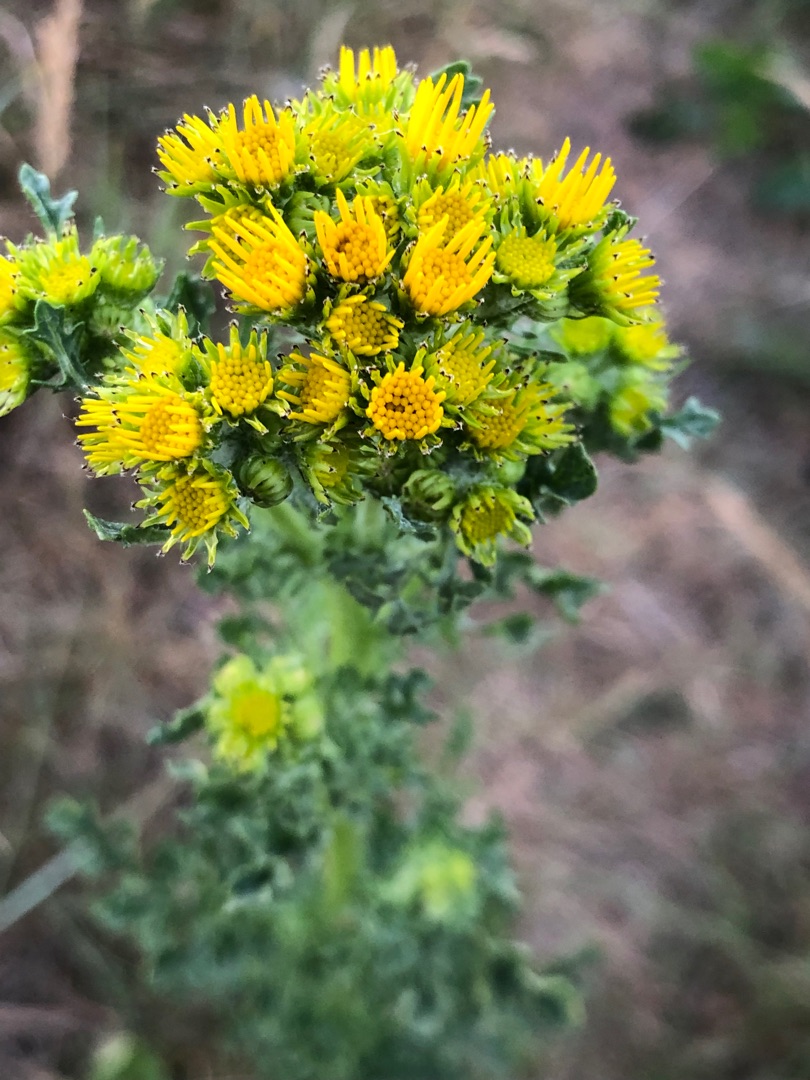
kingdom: Plantae
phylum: Tracheophyta
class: Magnoliopsida
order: Asterales
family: Asteraceae
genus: Jacobaea
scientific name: Jacobaea vulgaris
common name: Eng-brandbæger
